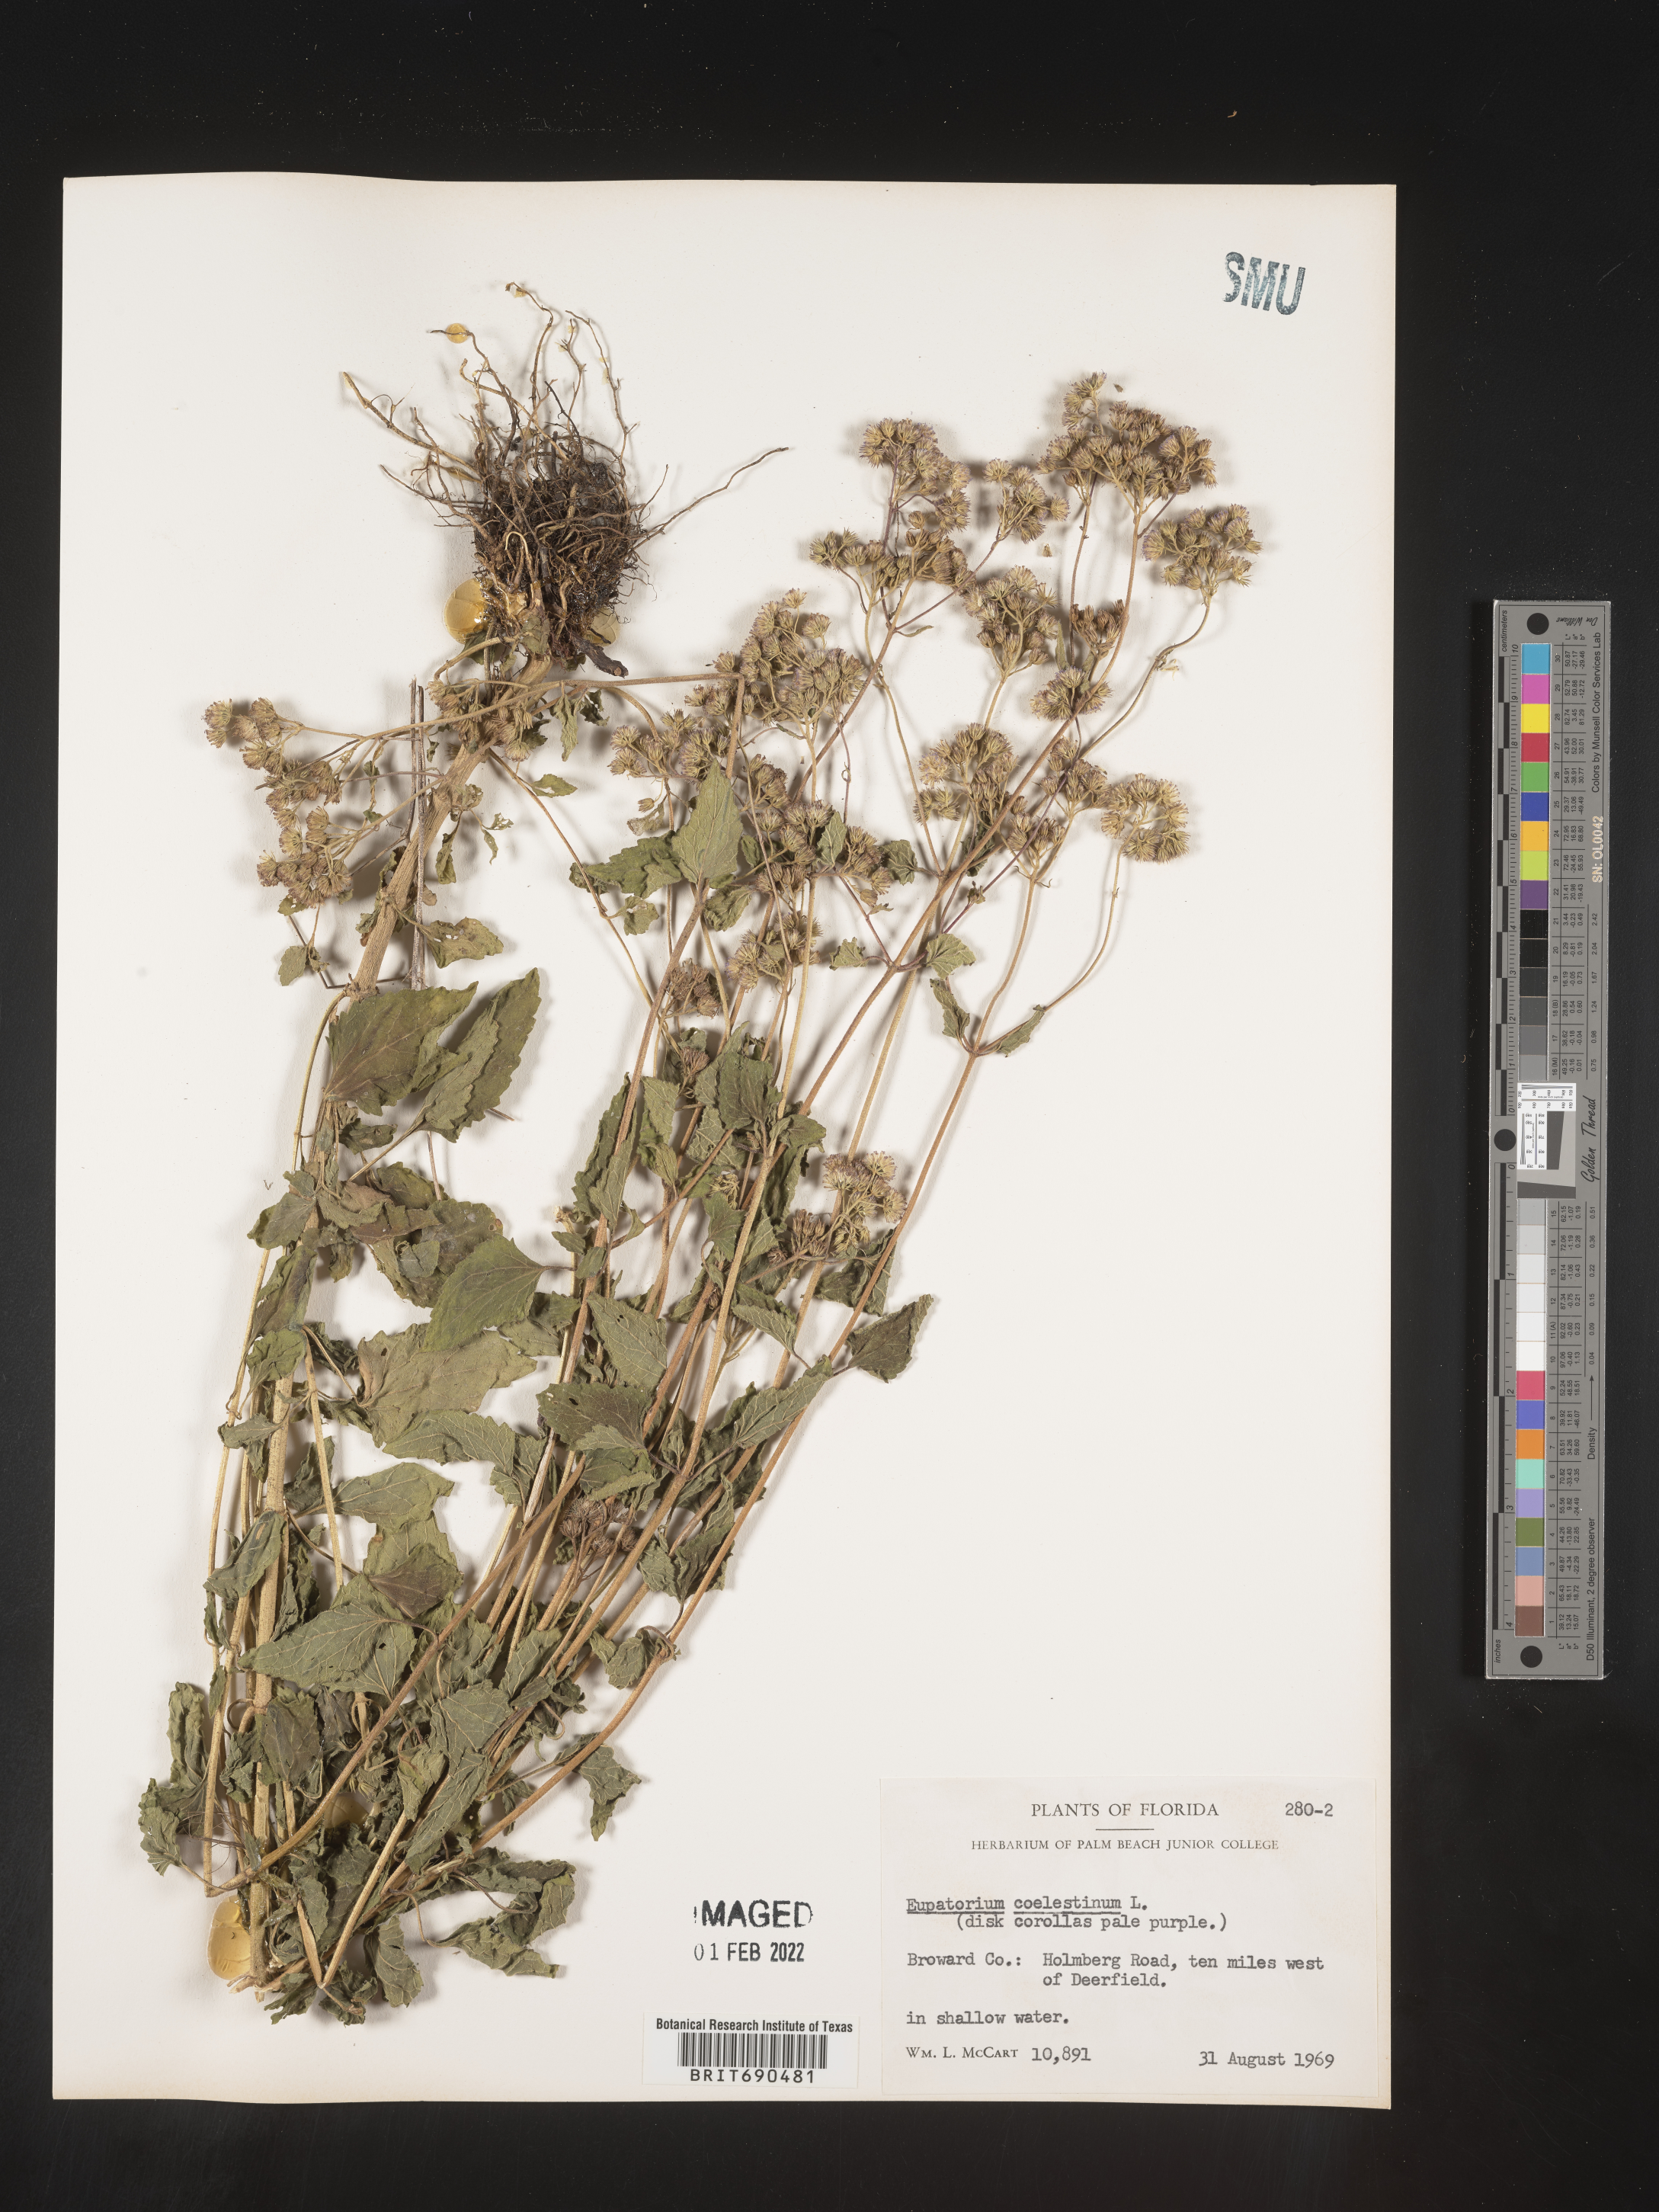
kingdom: Plantae
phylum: Tracheophyta
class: Magnoliopsida
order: Asterales
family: Asteraceae
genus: Conoclinium
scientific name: Conoclinium coelestinum
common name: Blue mistflower
